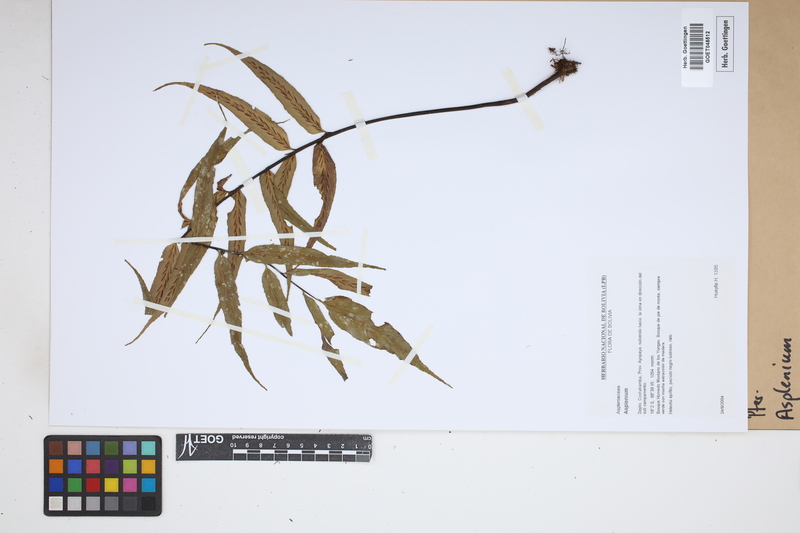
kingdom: Plantae
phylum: Tracheophyta
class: Polypodiopsida
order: Polypodiales
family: Aspleniaceae
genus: Asplenium
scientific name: Asplenium
